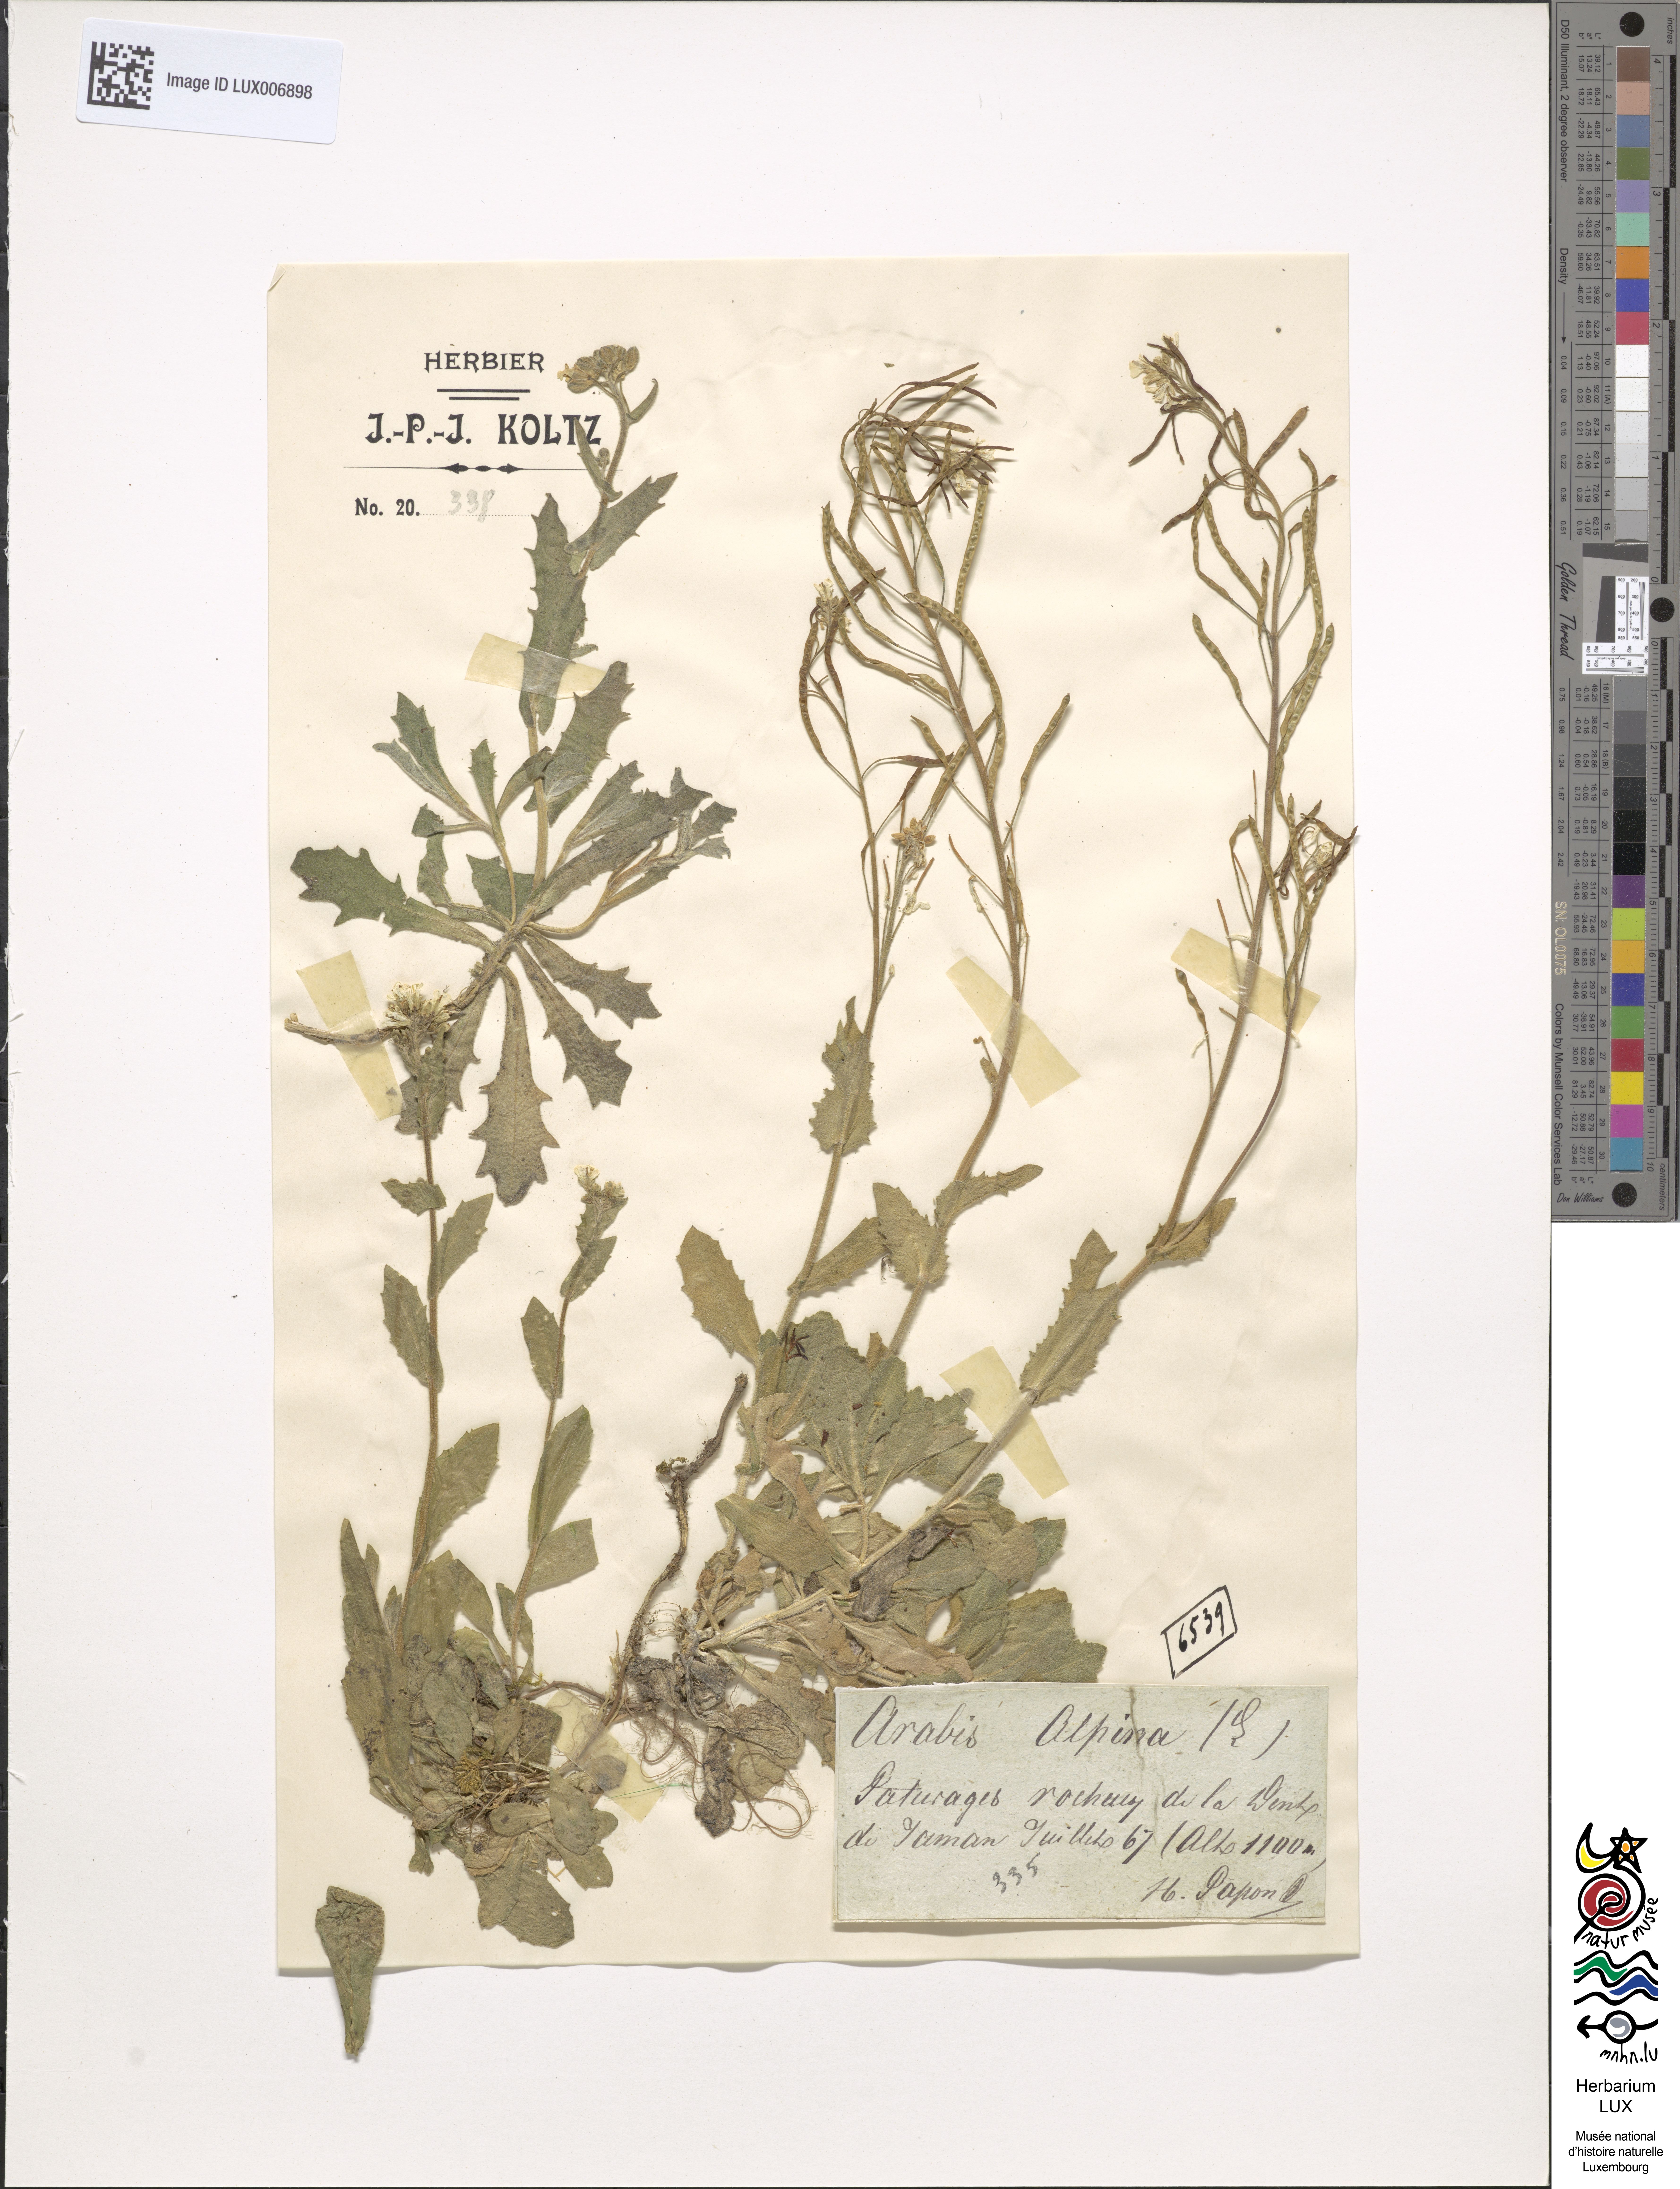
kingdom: Plantae
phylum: Tracheophyta
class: Magnoliopsida
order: Brassicales
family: Brassicaceae
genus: Arabis
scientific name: Arabis alpina
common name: Alpine rock-cress
